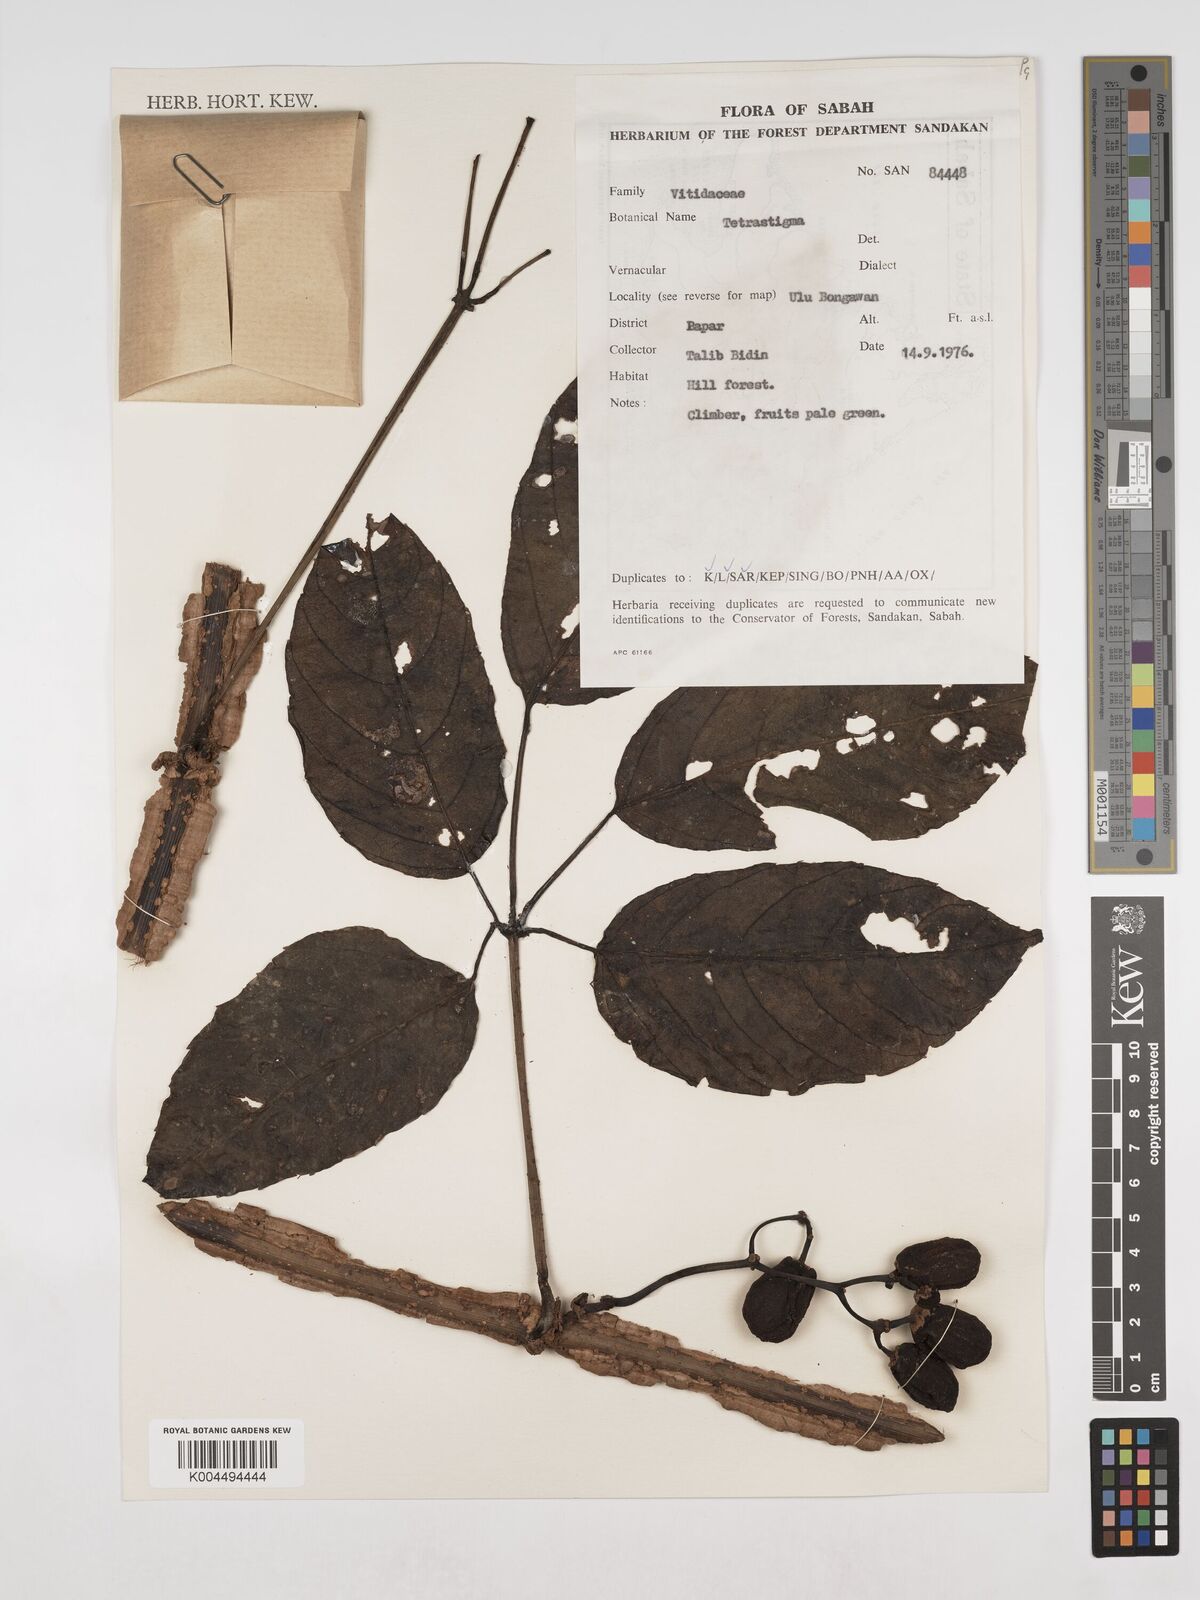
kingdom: Plantae
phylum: Tracheophyta
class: Magnoliopsida
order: Vitales
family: Vitaceae
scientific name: Vitaceae
